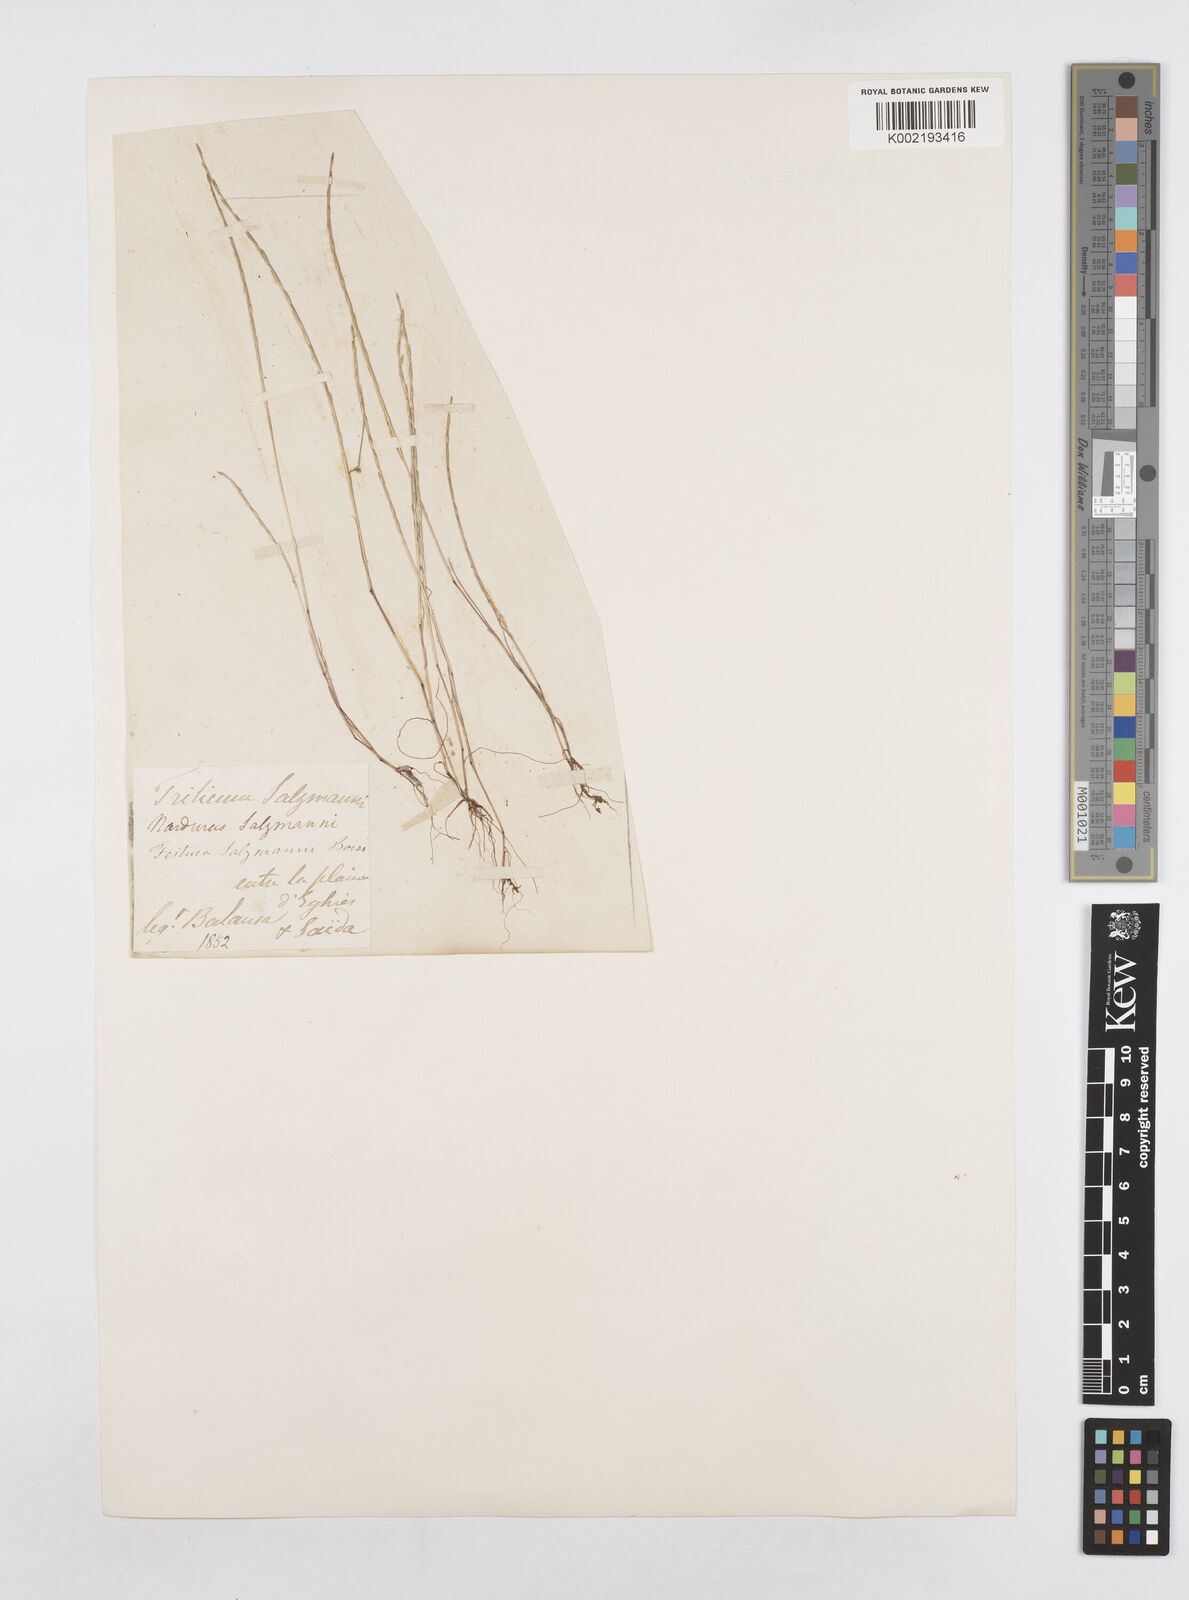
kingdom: Plantae
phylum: Tracheophyta
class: Liliopsida
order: Poales
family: Poaceae
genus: Festuca
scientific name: Festuca salzmannii
